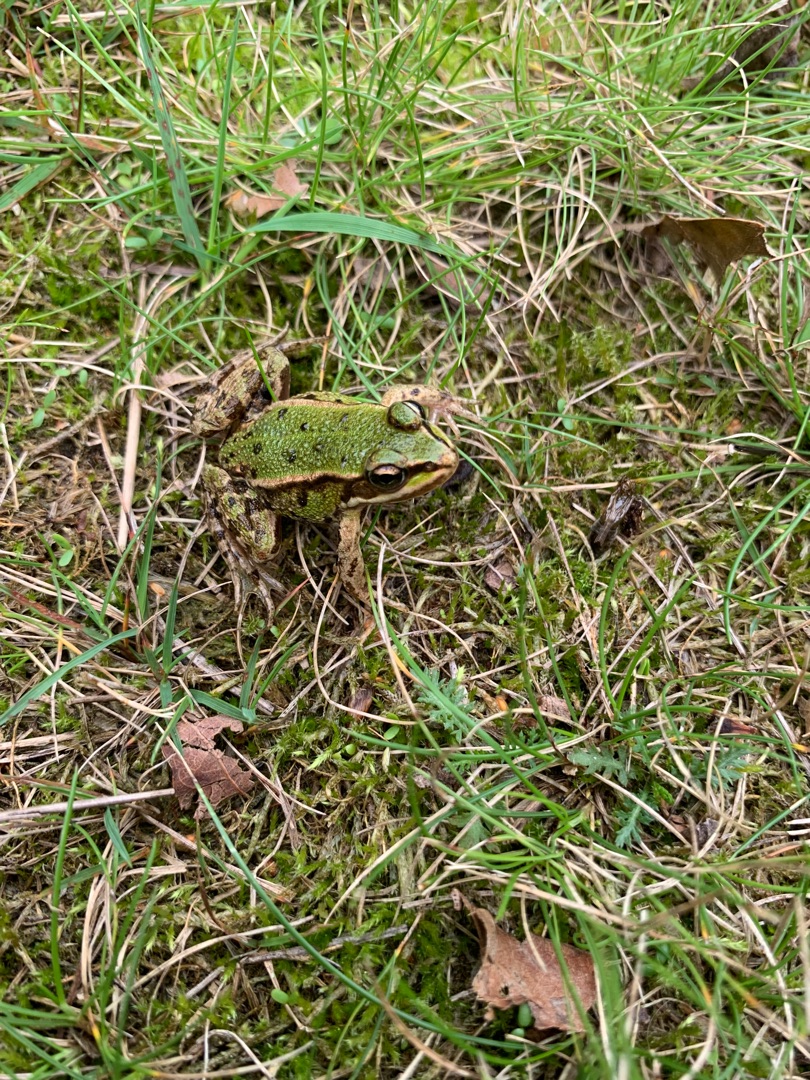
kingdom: Animalia
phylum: Chordata
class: Amphibia
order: Anura
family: Ranidae
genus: Pelophylax
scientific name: Pelophylax lessonae
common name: Grøn frø
